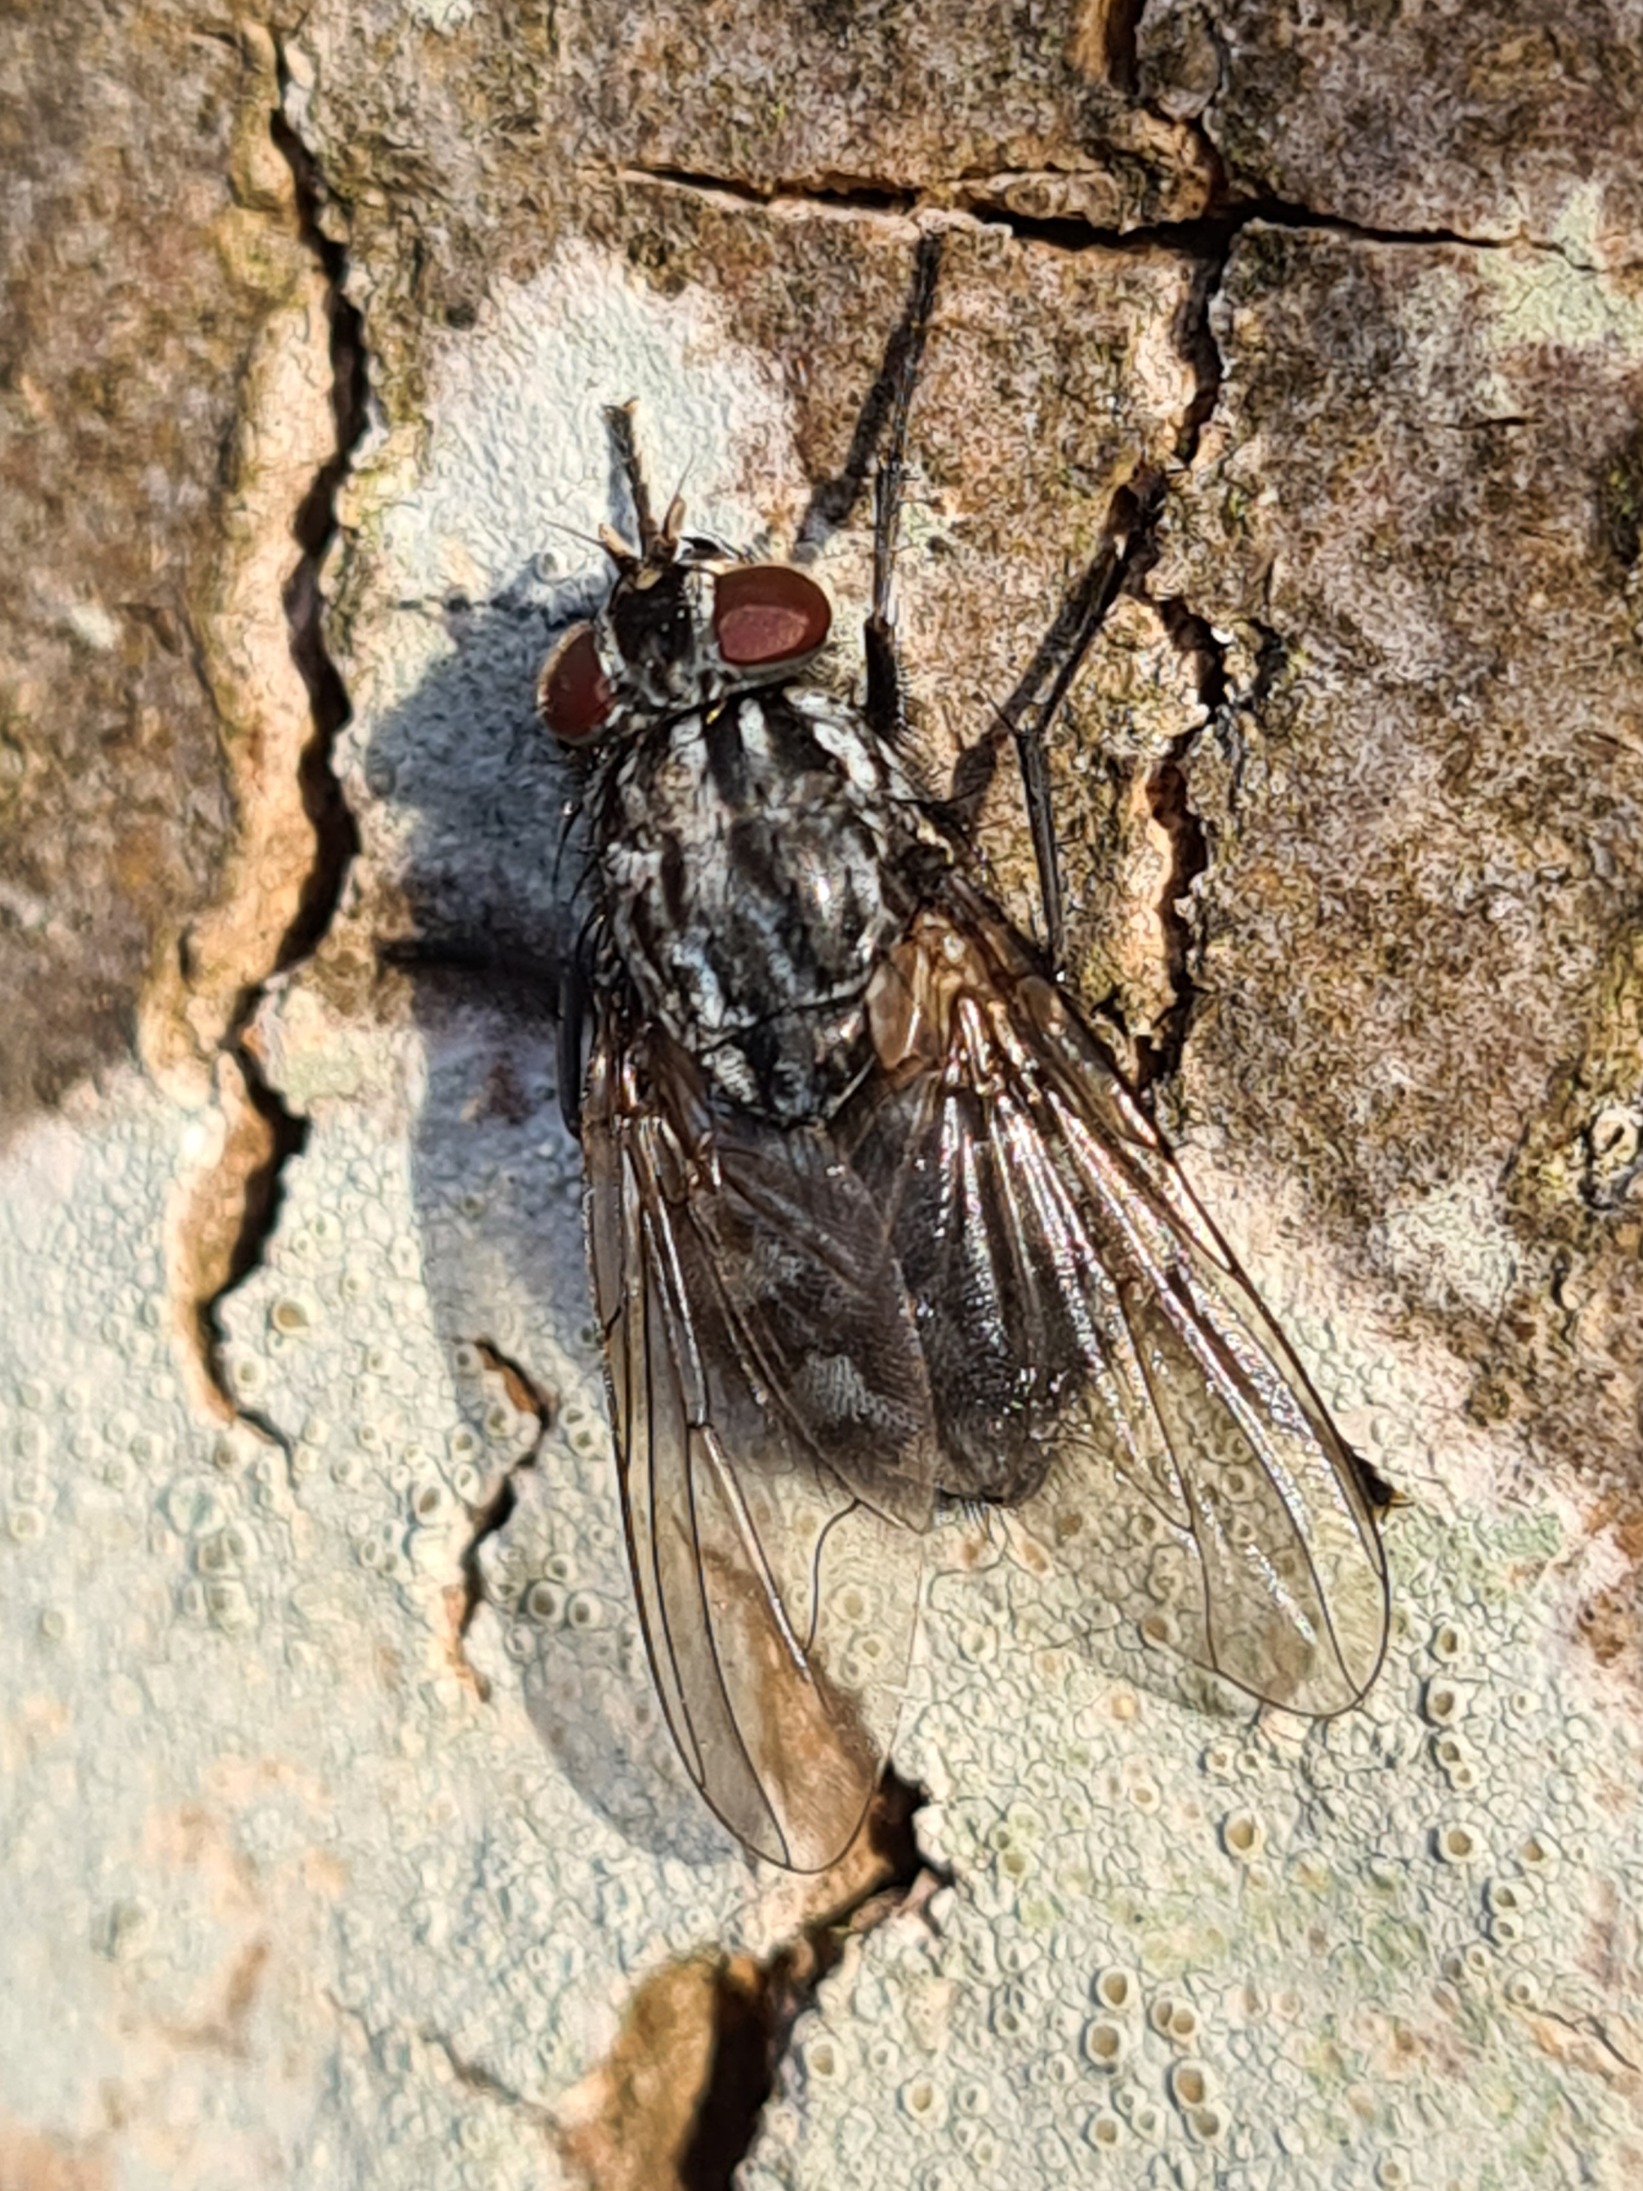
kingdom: Animalia
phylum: Arthropoda
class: Insecta
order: Diptera
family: Muscidae
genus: Polietes
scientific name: Polietes lardaria
